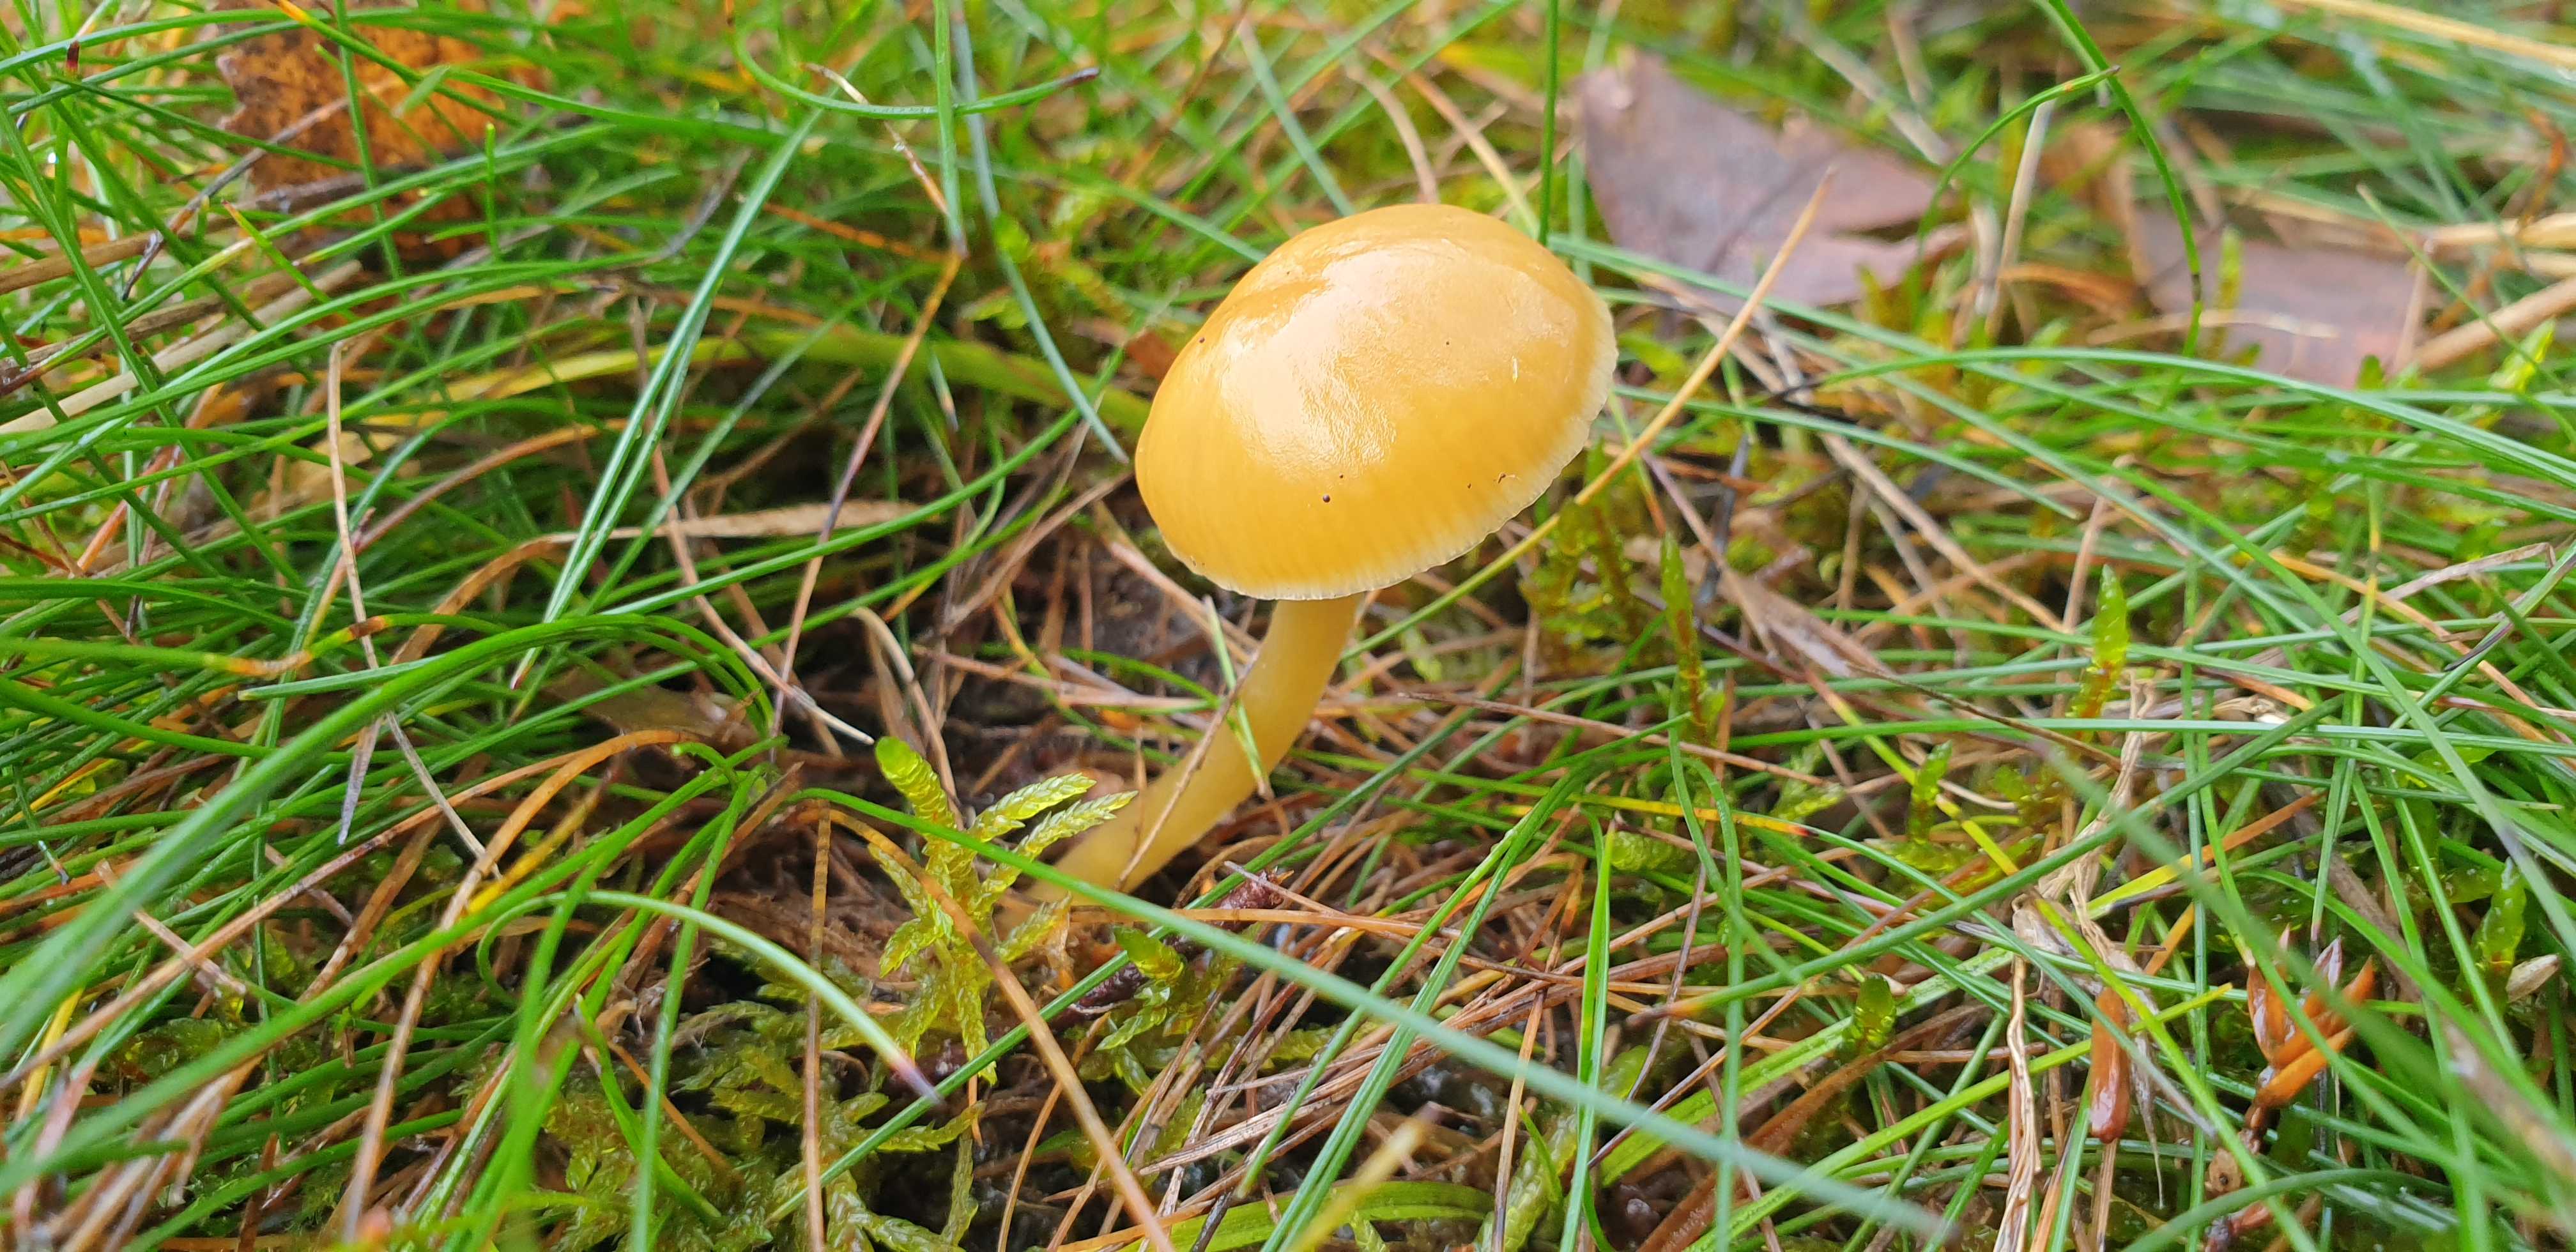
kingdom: Fungi
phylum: Basidiomycota
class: Agaricomycetes
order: Agaricales
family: Hygrophoraceae
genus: Gliophorus
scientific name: Gliophorus laetus
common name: brusk-vokshat
